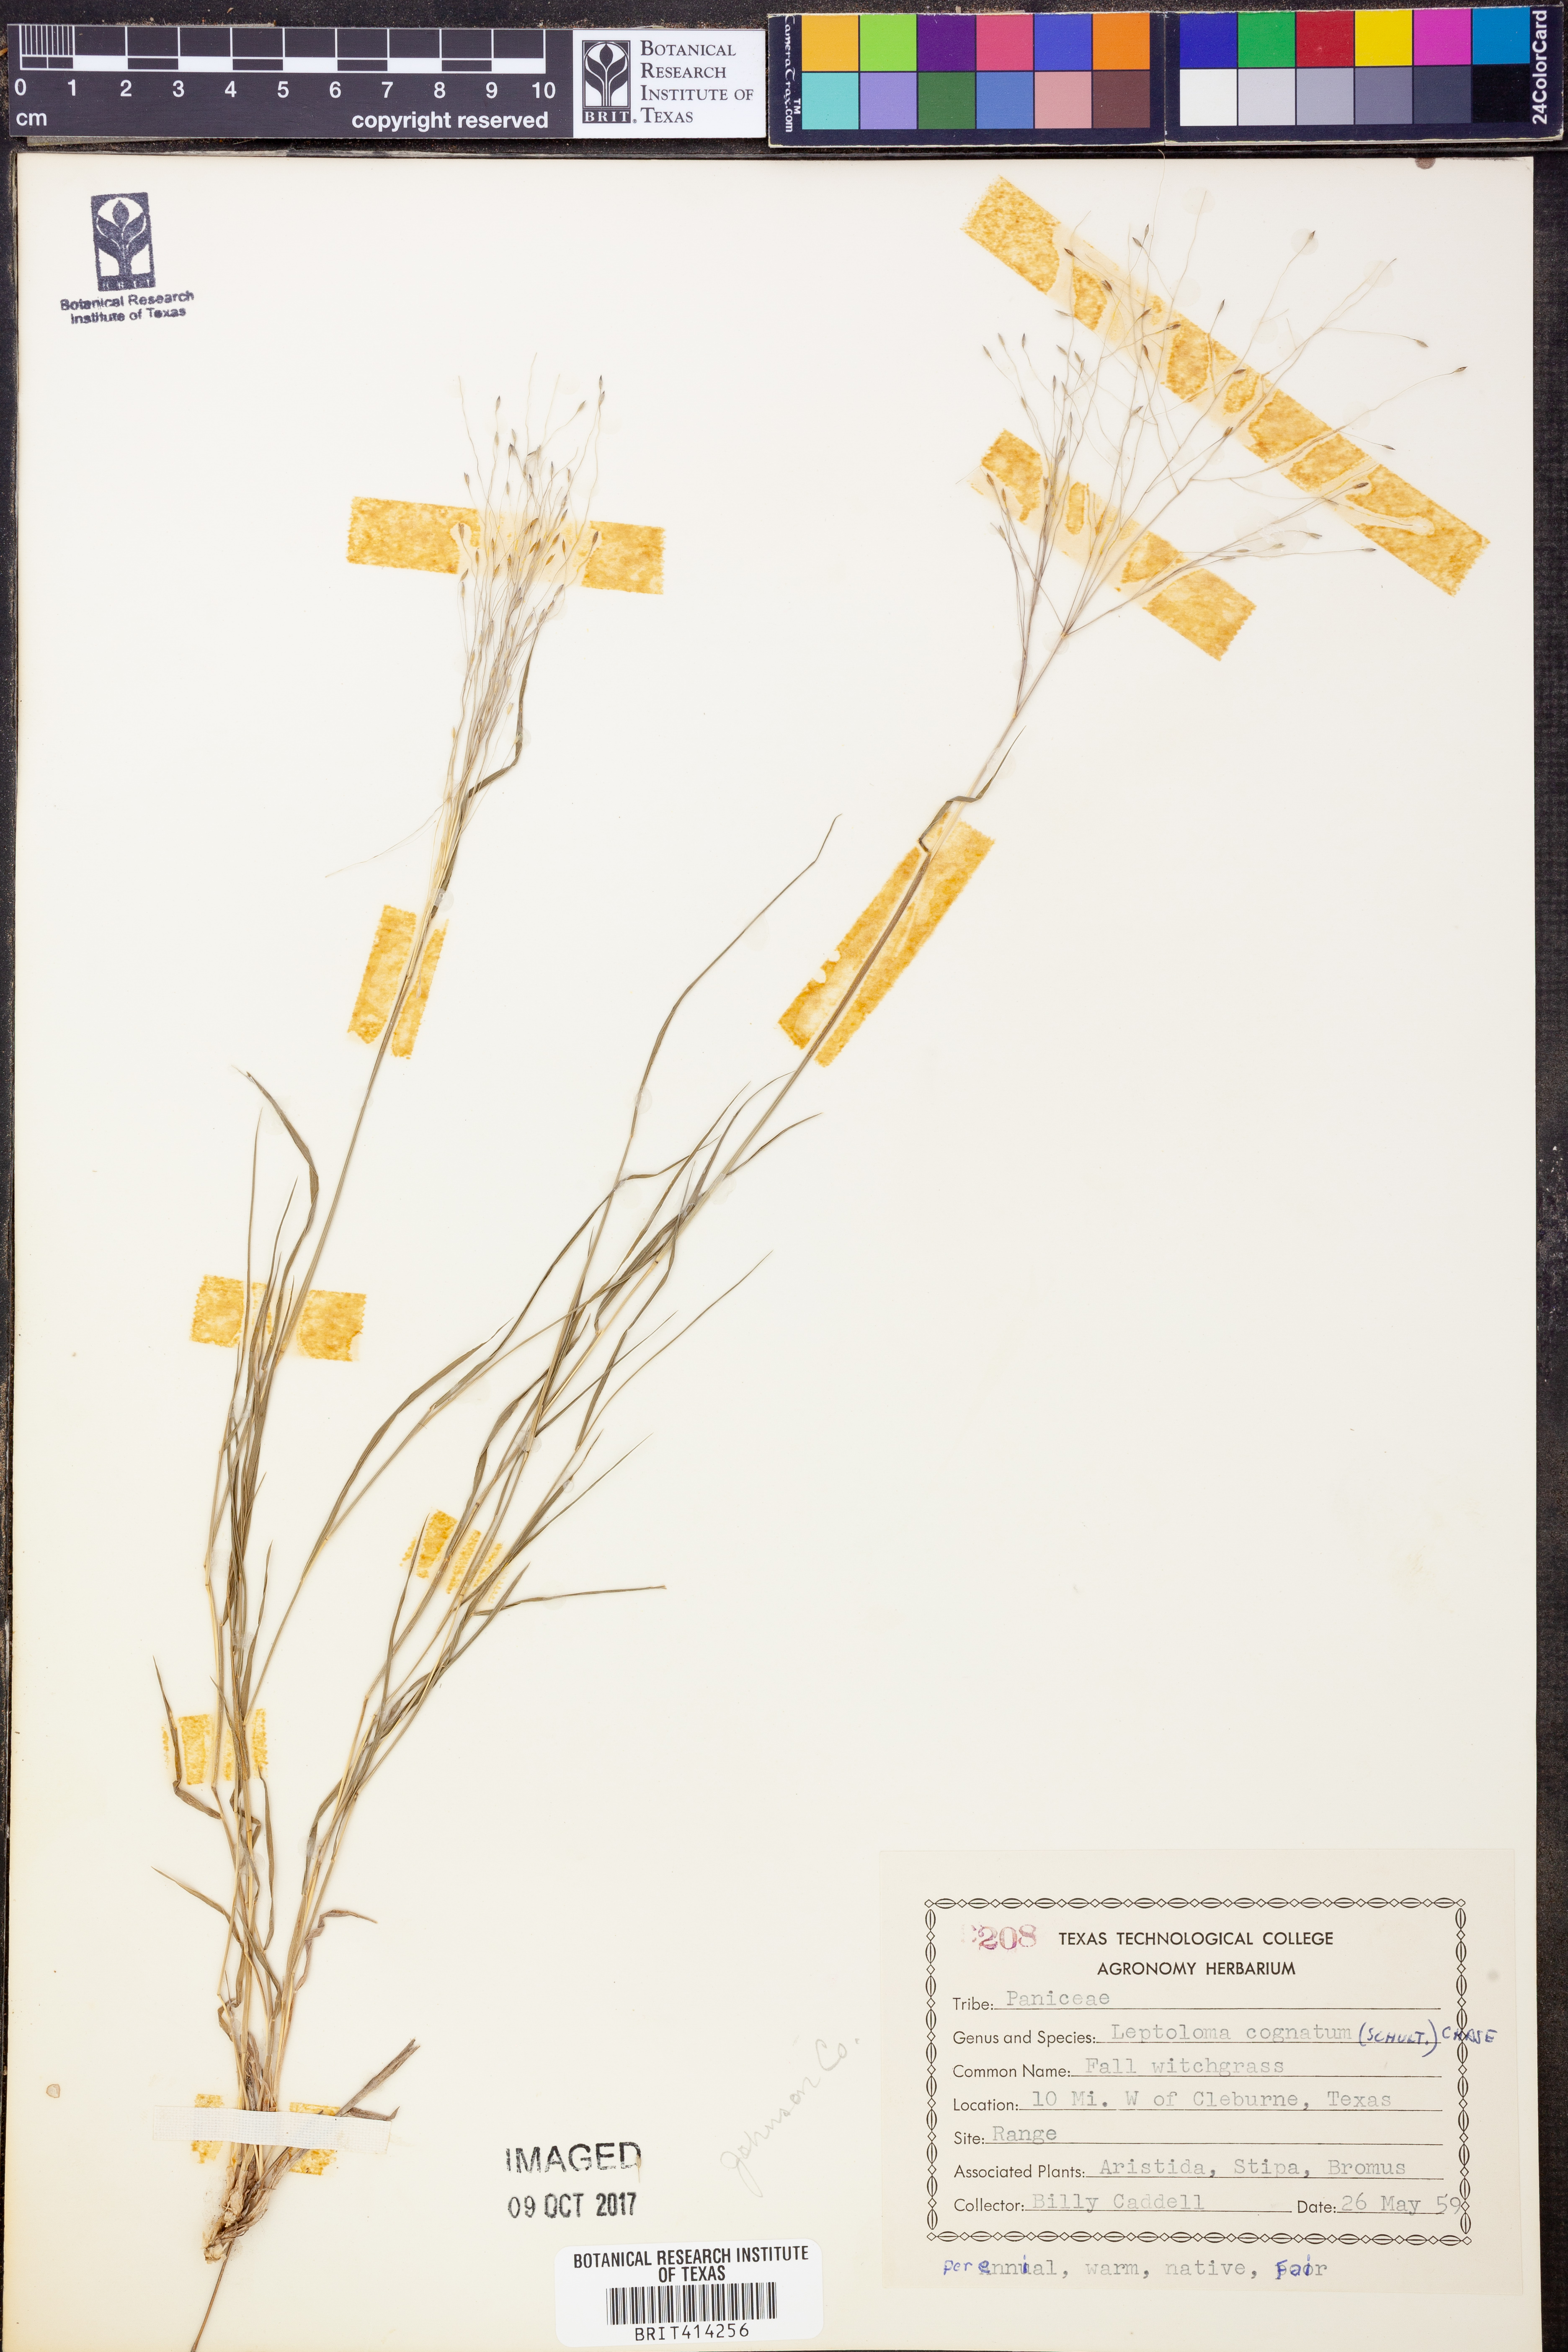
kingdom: Plantae
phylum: Tracheophyta
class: Liliopsida
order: Poales
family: Poaceae
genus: Digitaria
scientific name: Digitaria cognata
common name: Fall witchgrass
